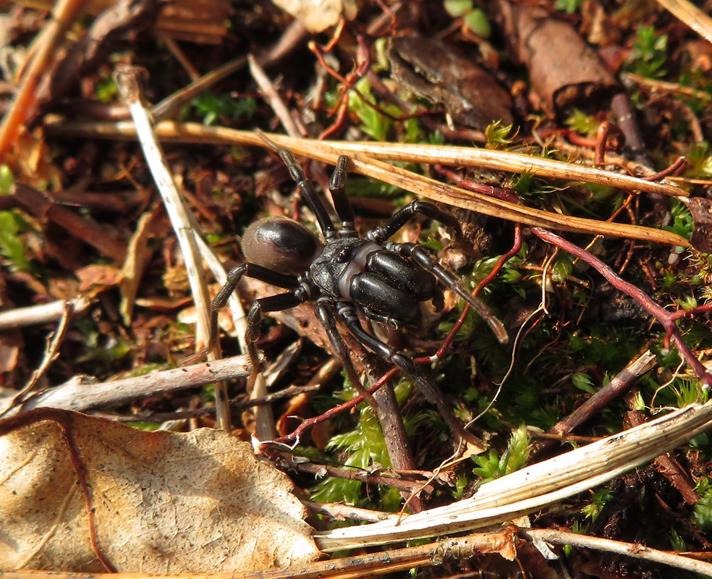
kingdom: Animalia
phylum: Arthropoda
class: Arachnida
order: Araneae
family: Atypidae
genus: Atypus
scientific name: Atypus affinis
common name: Nordlig fugleedderkop
